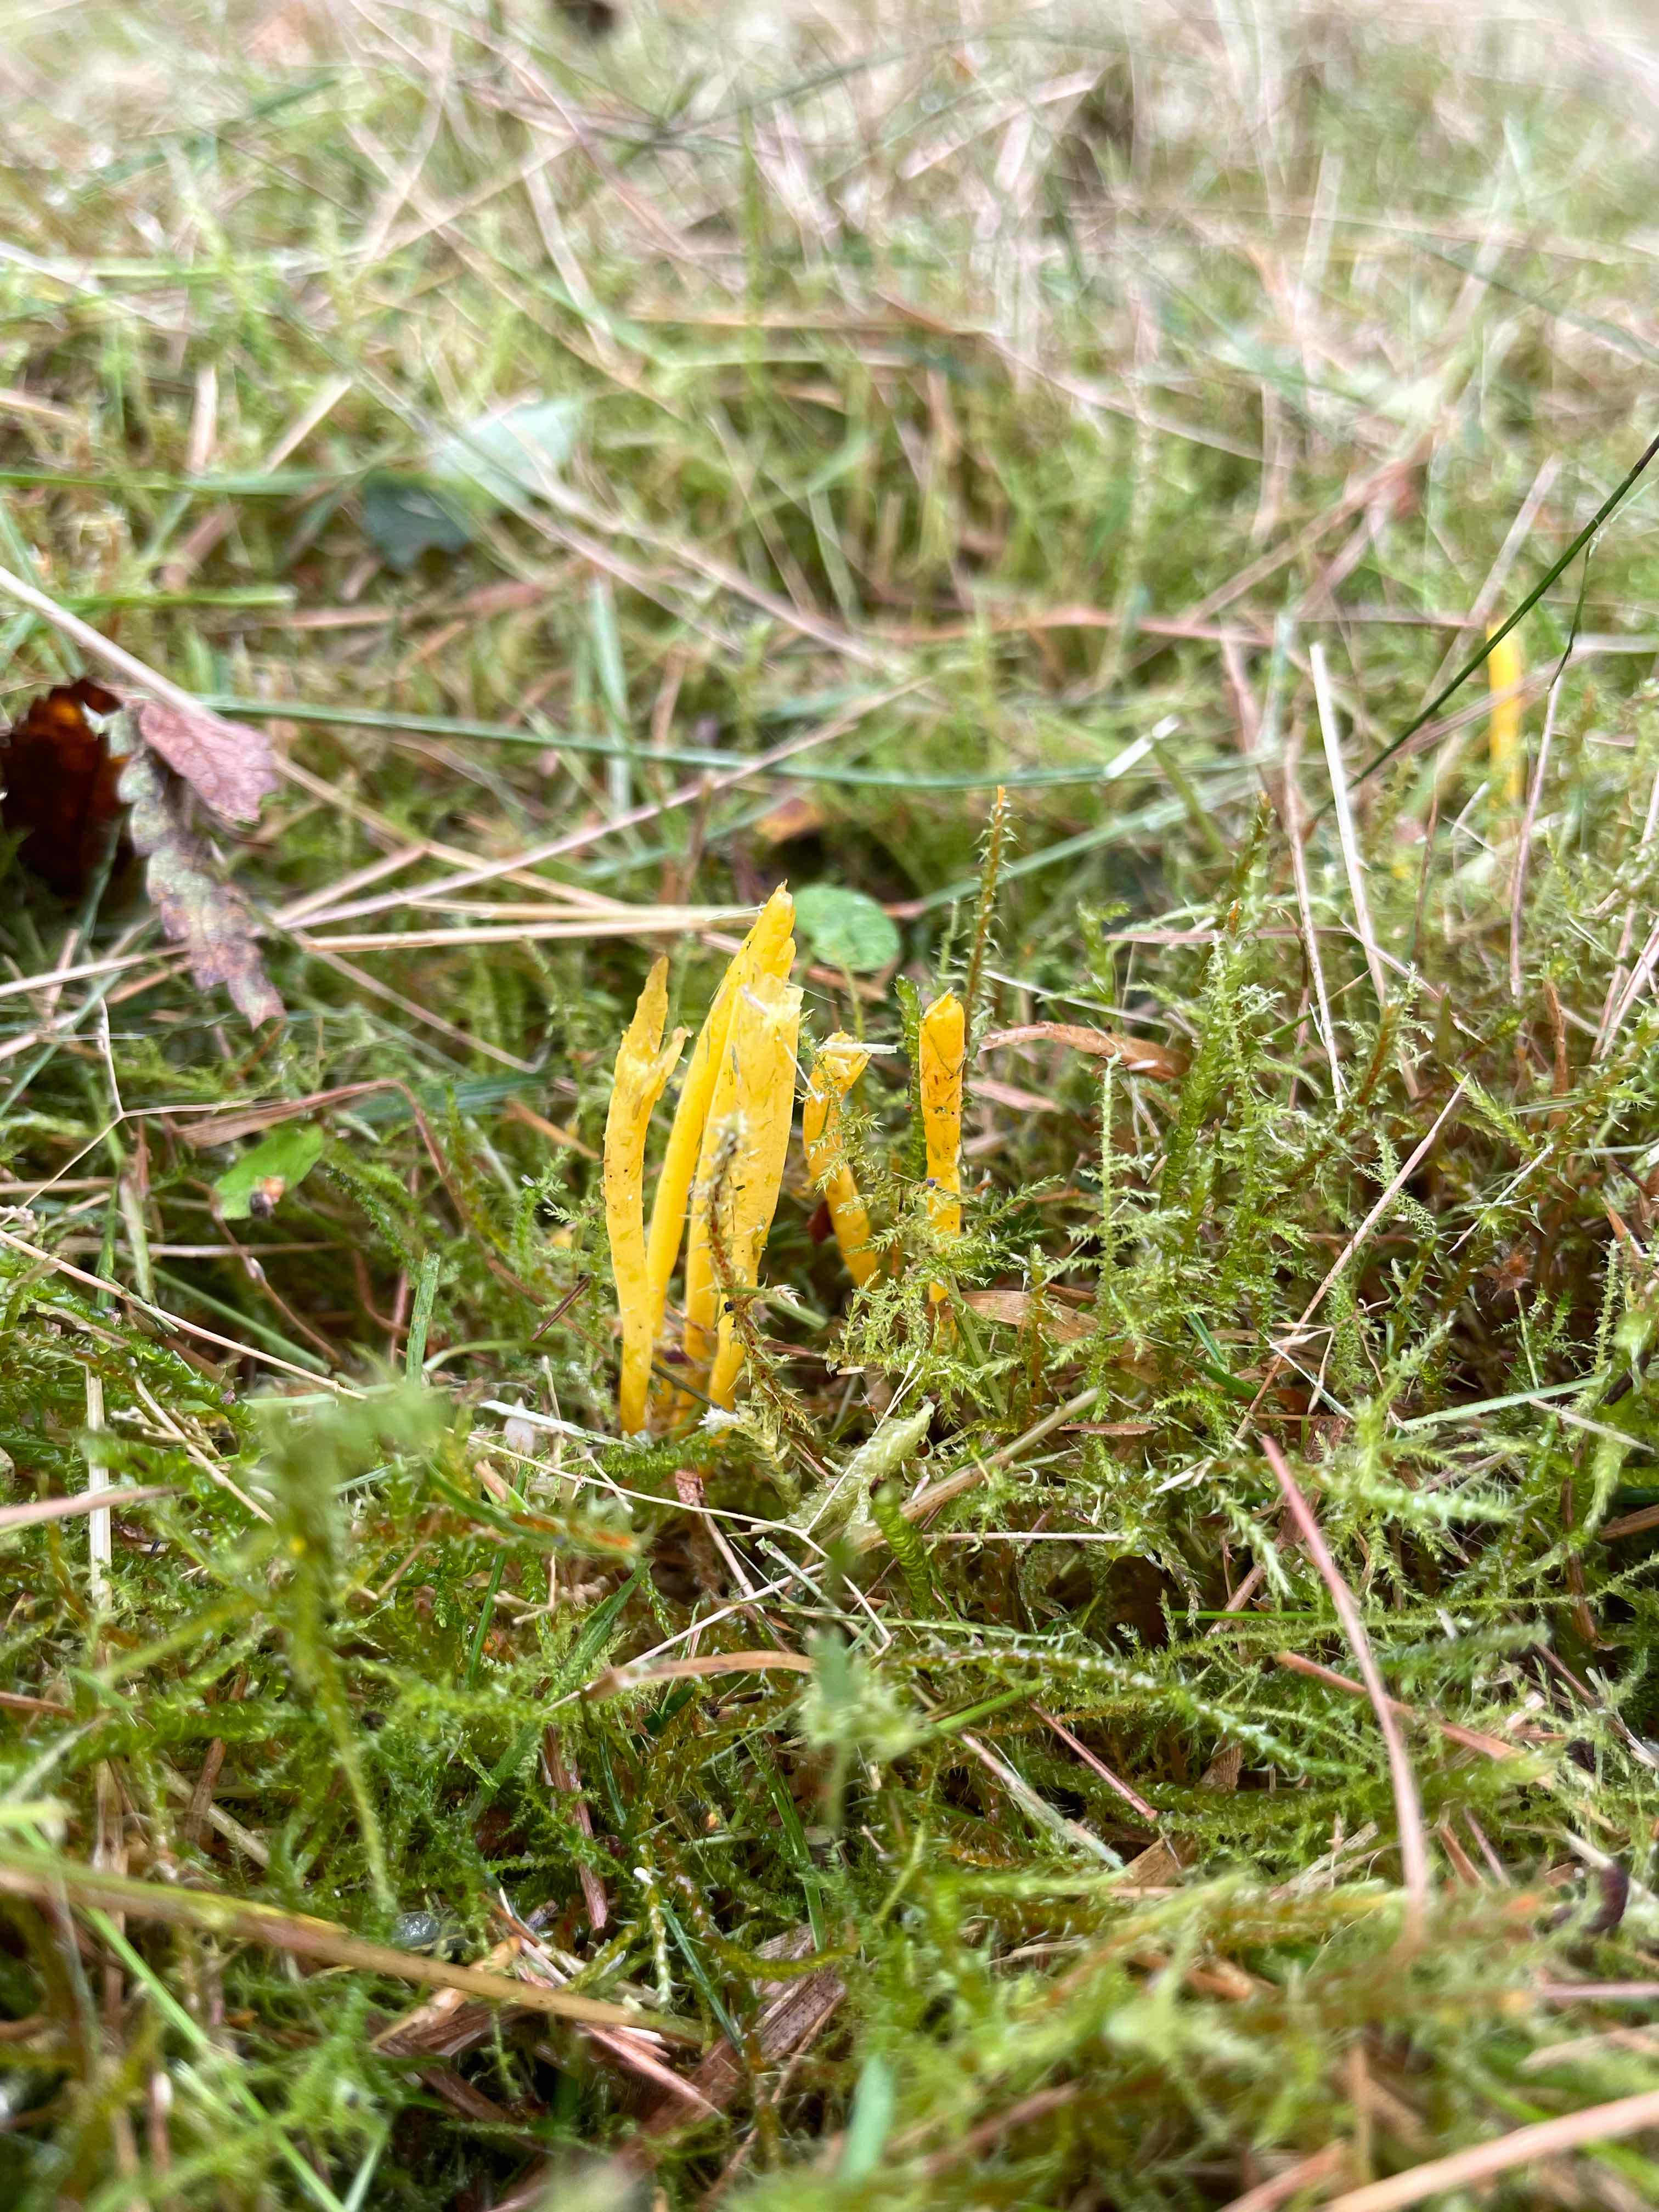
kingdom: Fungi
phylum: Basidiomycota
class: Agaricomycetes
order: Agaricales
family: Clavariaceae
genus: Clavulinopsis
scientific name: Clavulinopsis
